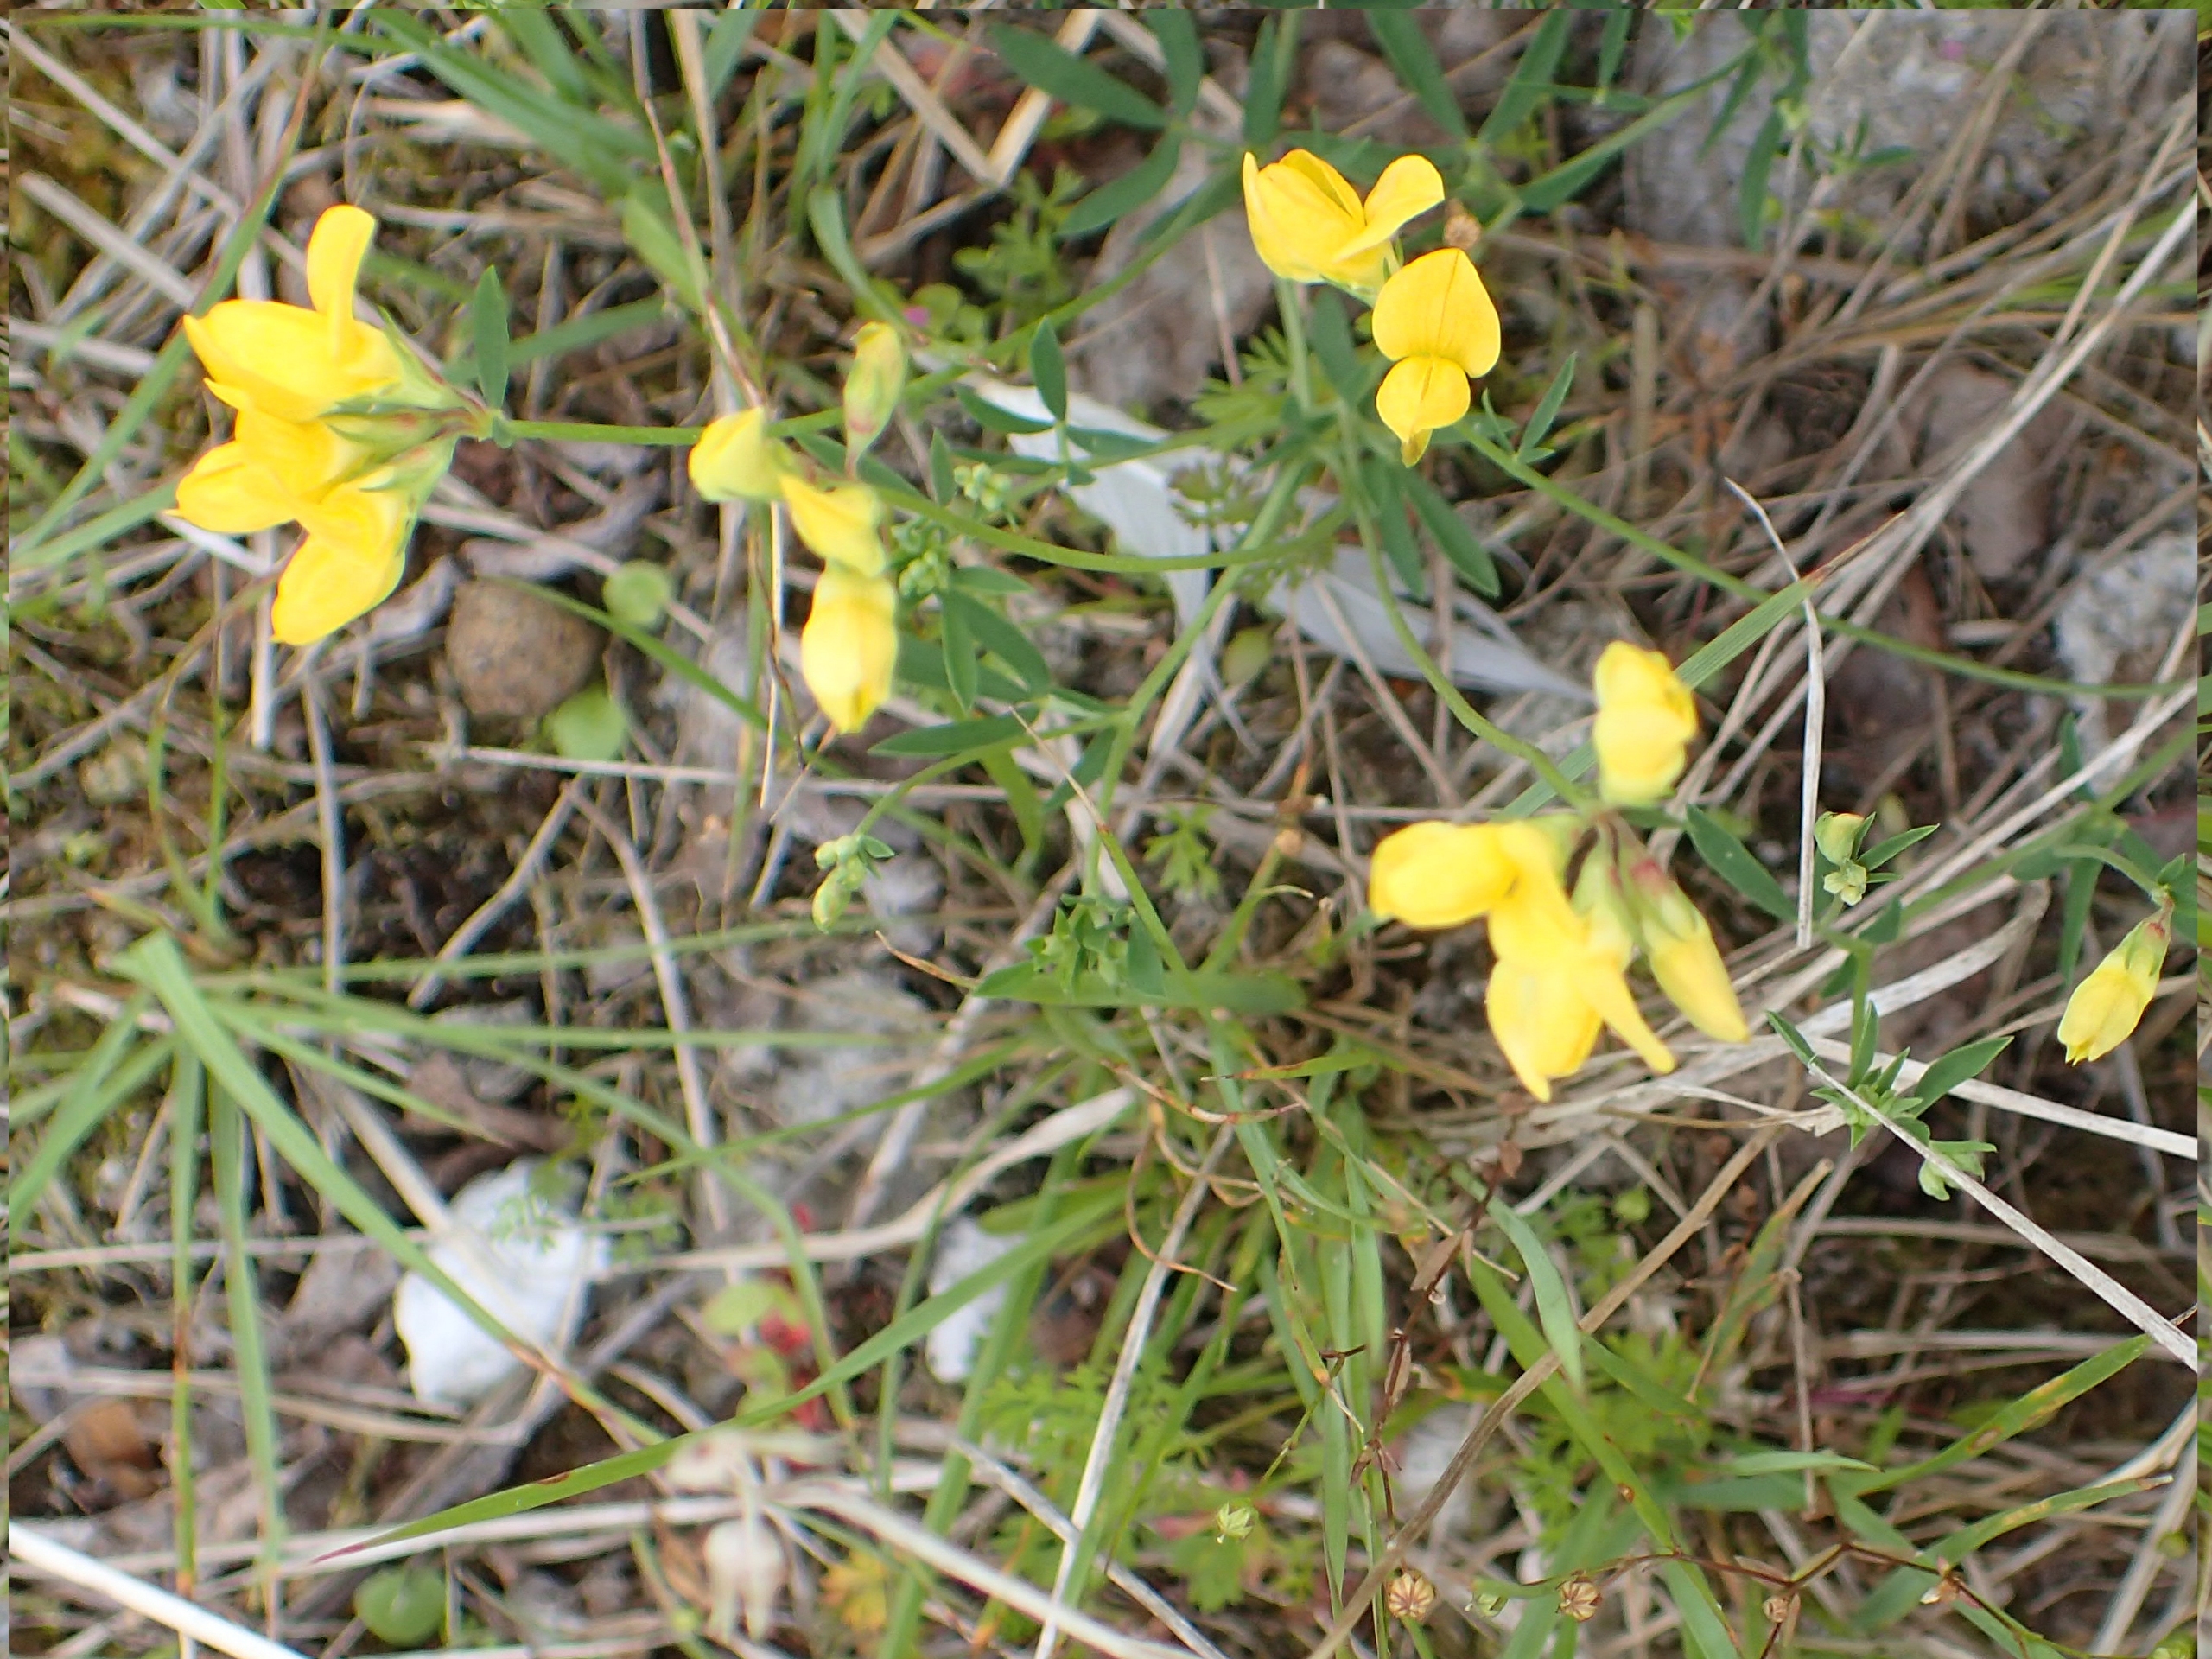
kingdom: Plantae
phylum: Tracheophyta
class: Magnoliopsida
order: Fabales
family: Fabaceae
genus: Lotus
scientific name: Lotus tenuis
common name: Smalbladet kællingetand
